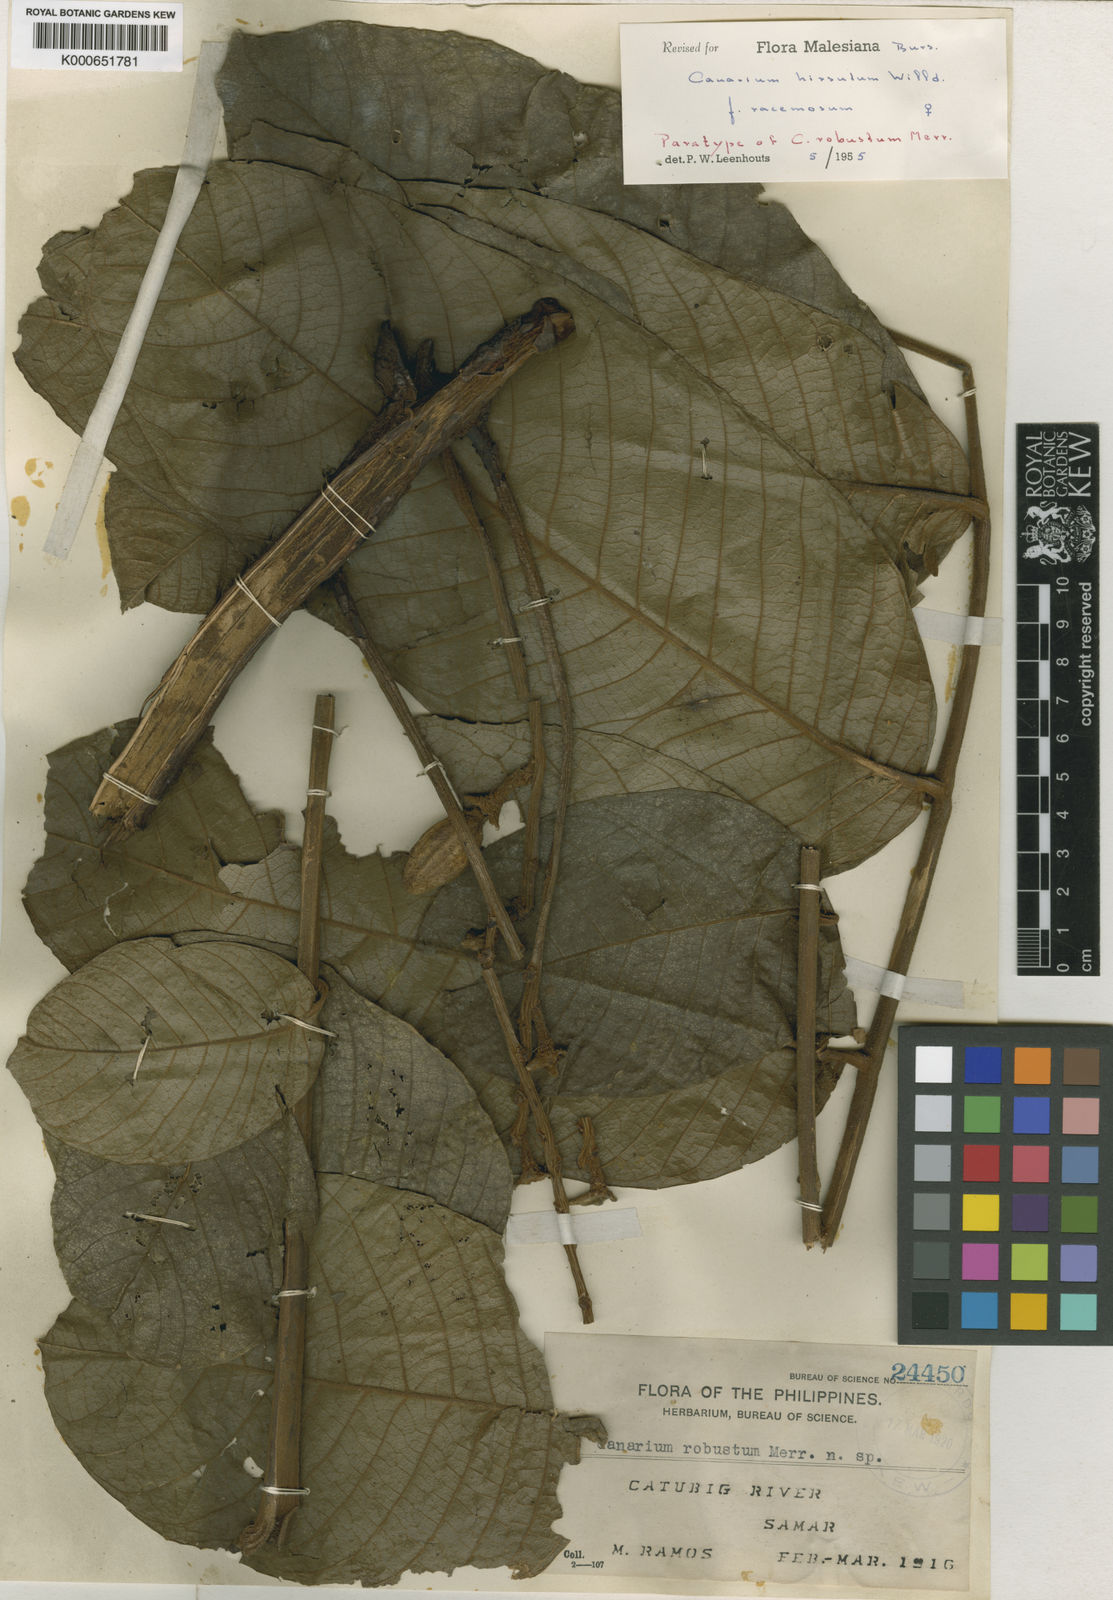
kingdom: Plantae
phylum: Tracheophyta
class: Magnoliopsida
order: Sapindales
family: Burseraceae
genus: Canarium
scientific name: Canarium hirsutum
